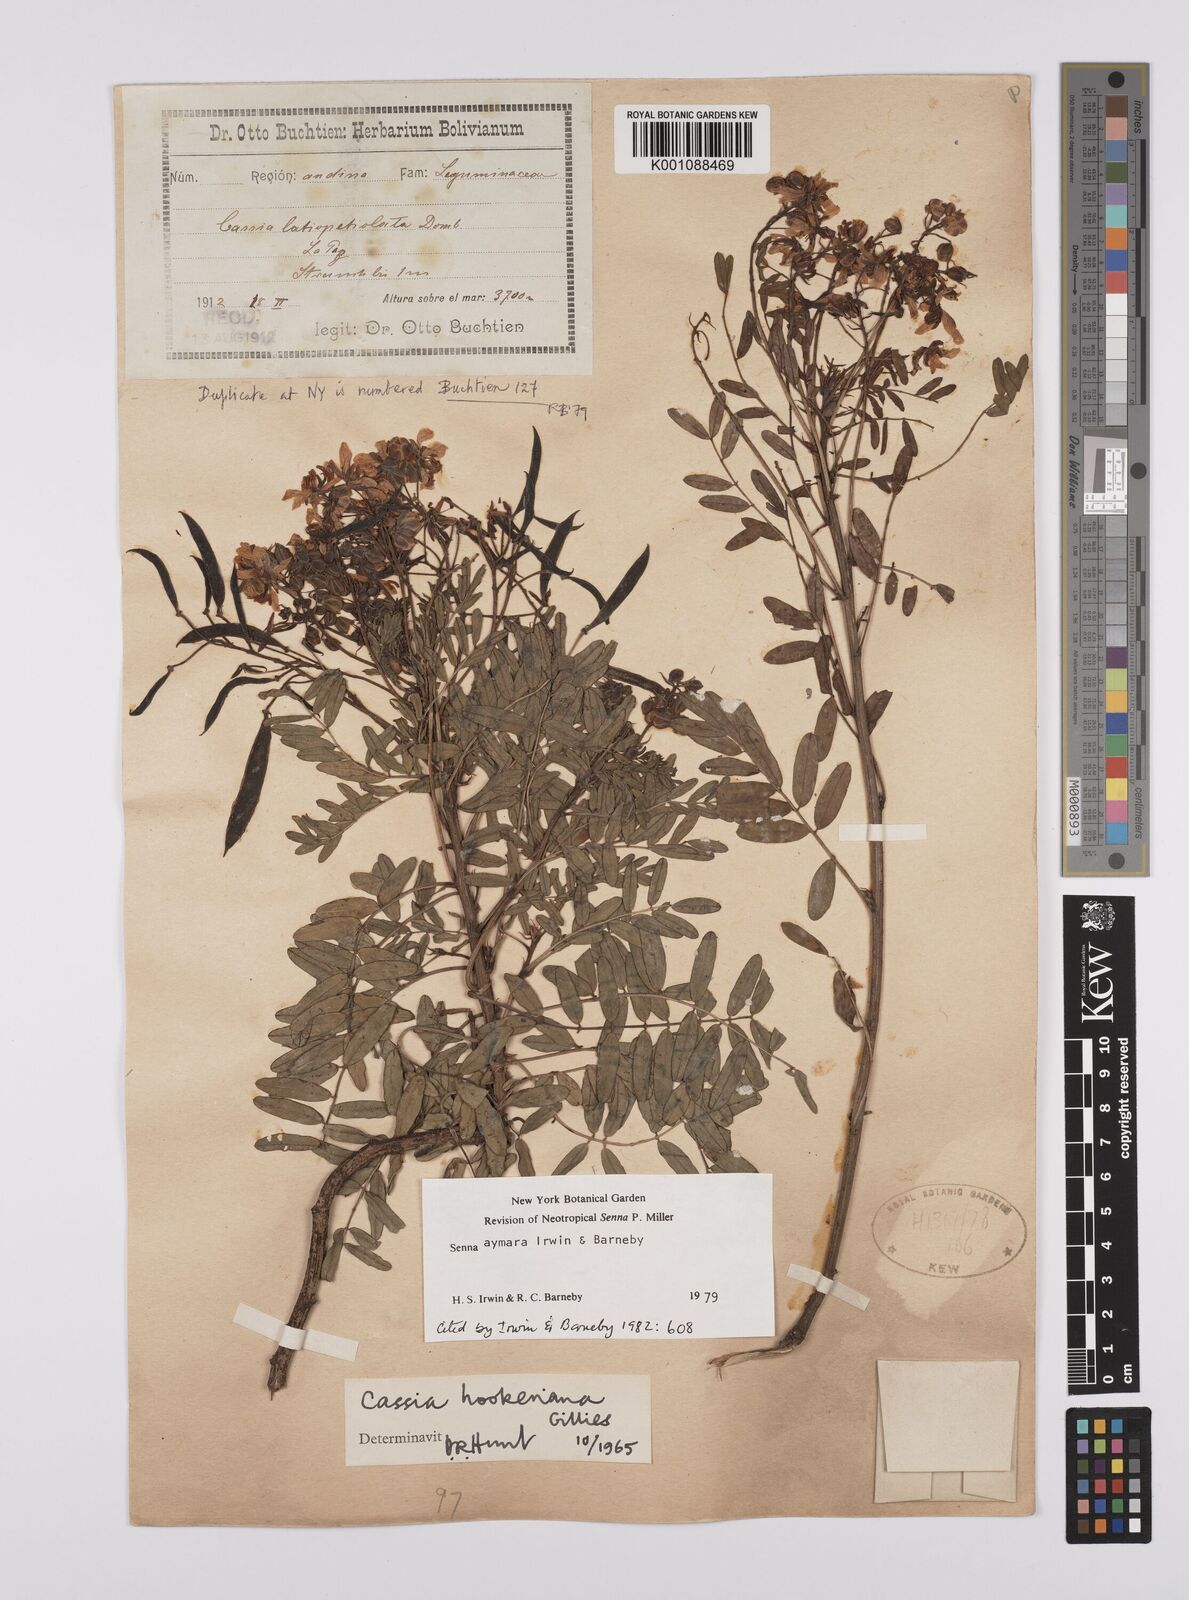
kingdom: Plantae
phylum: Tracheophyta
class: Magnoliopsida
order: Fabales
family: Fabaceae
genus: Senna
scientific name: Senna aymara
